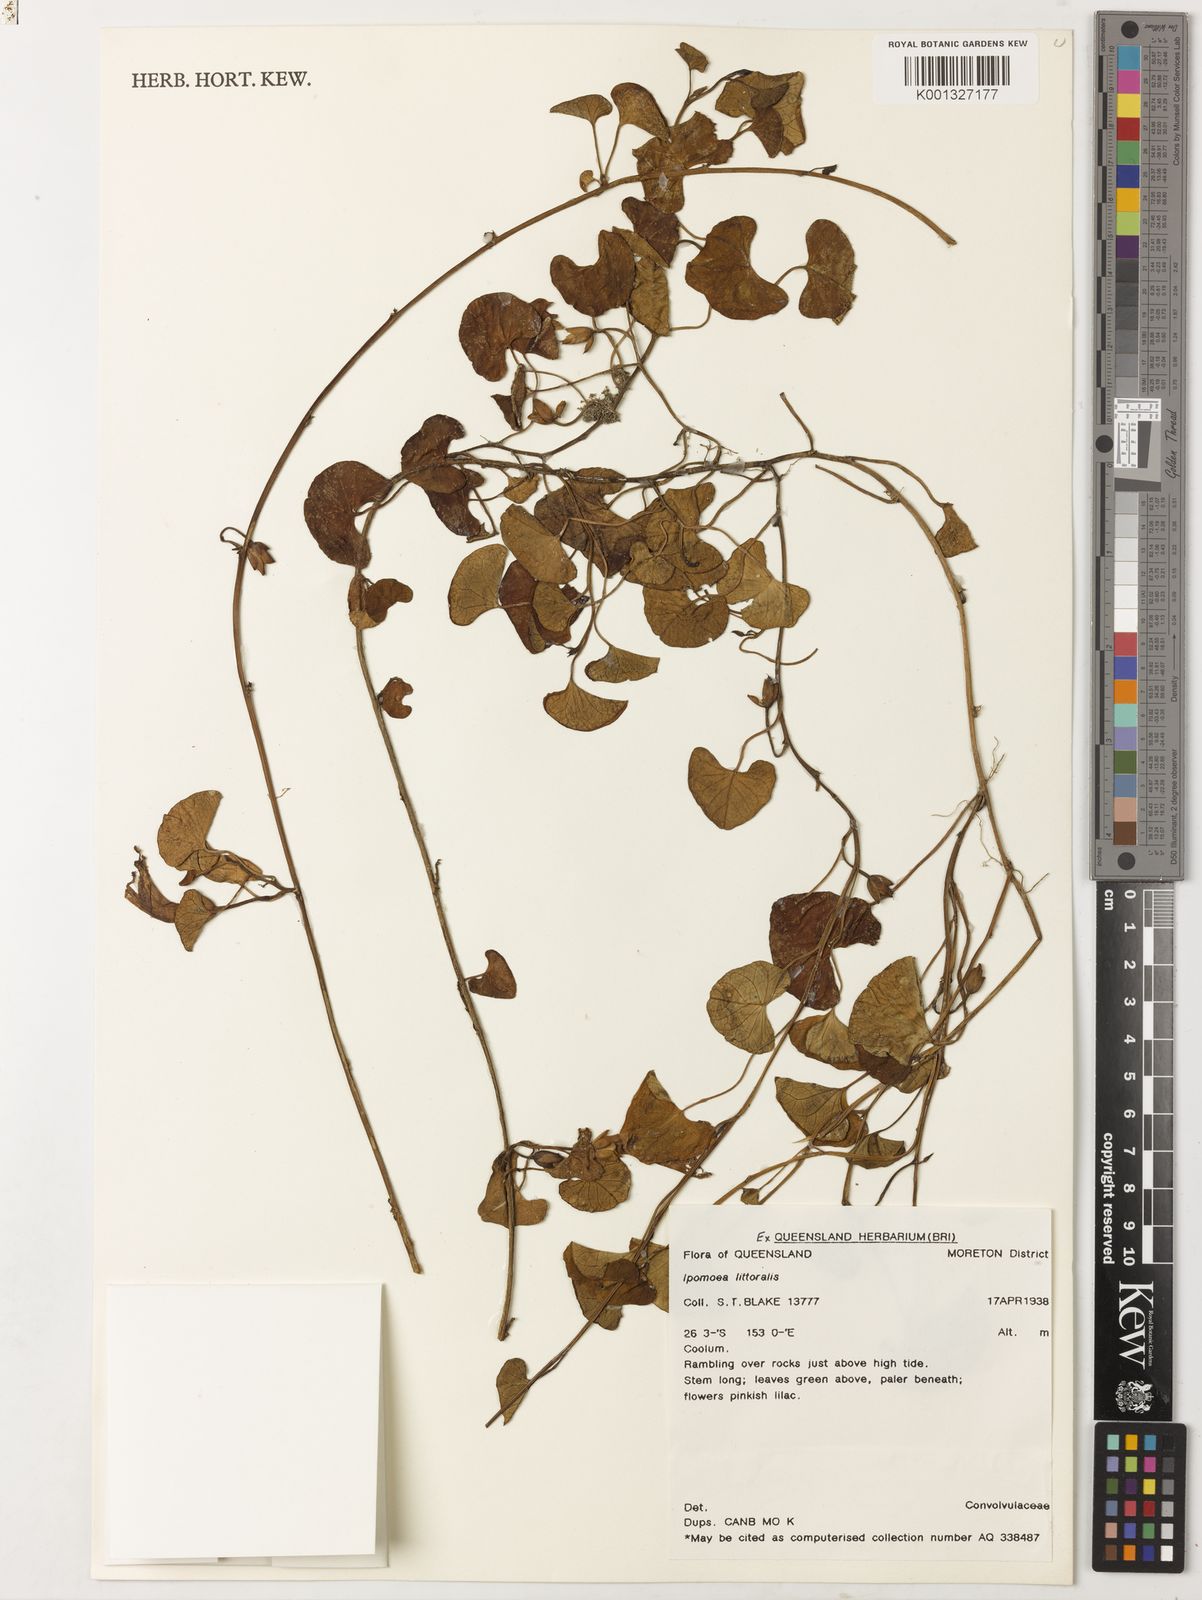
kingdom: Plantae
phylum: Tracheophyta
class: Magnoliopsida
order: Solanales
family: Convolvulaceae
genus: Ipomoea
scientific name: Ipomoea littoralis
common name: Coastal morning glory
